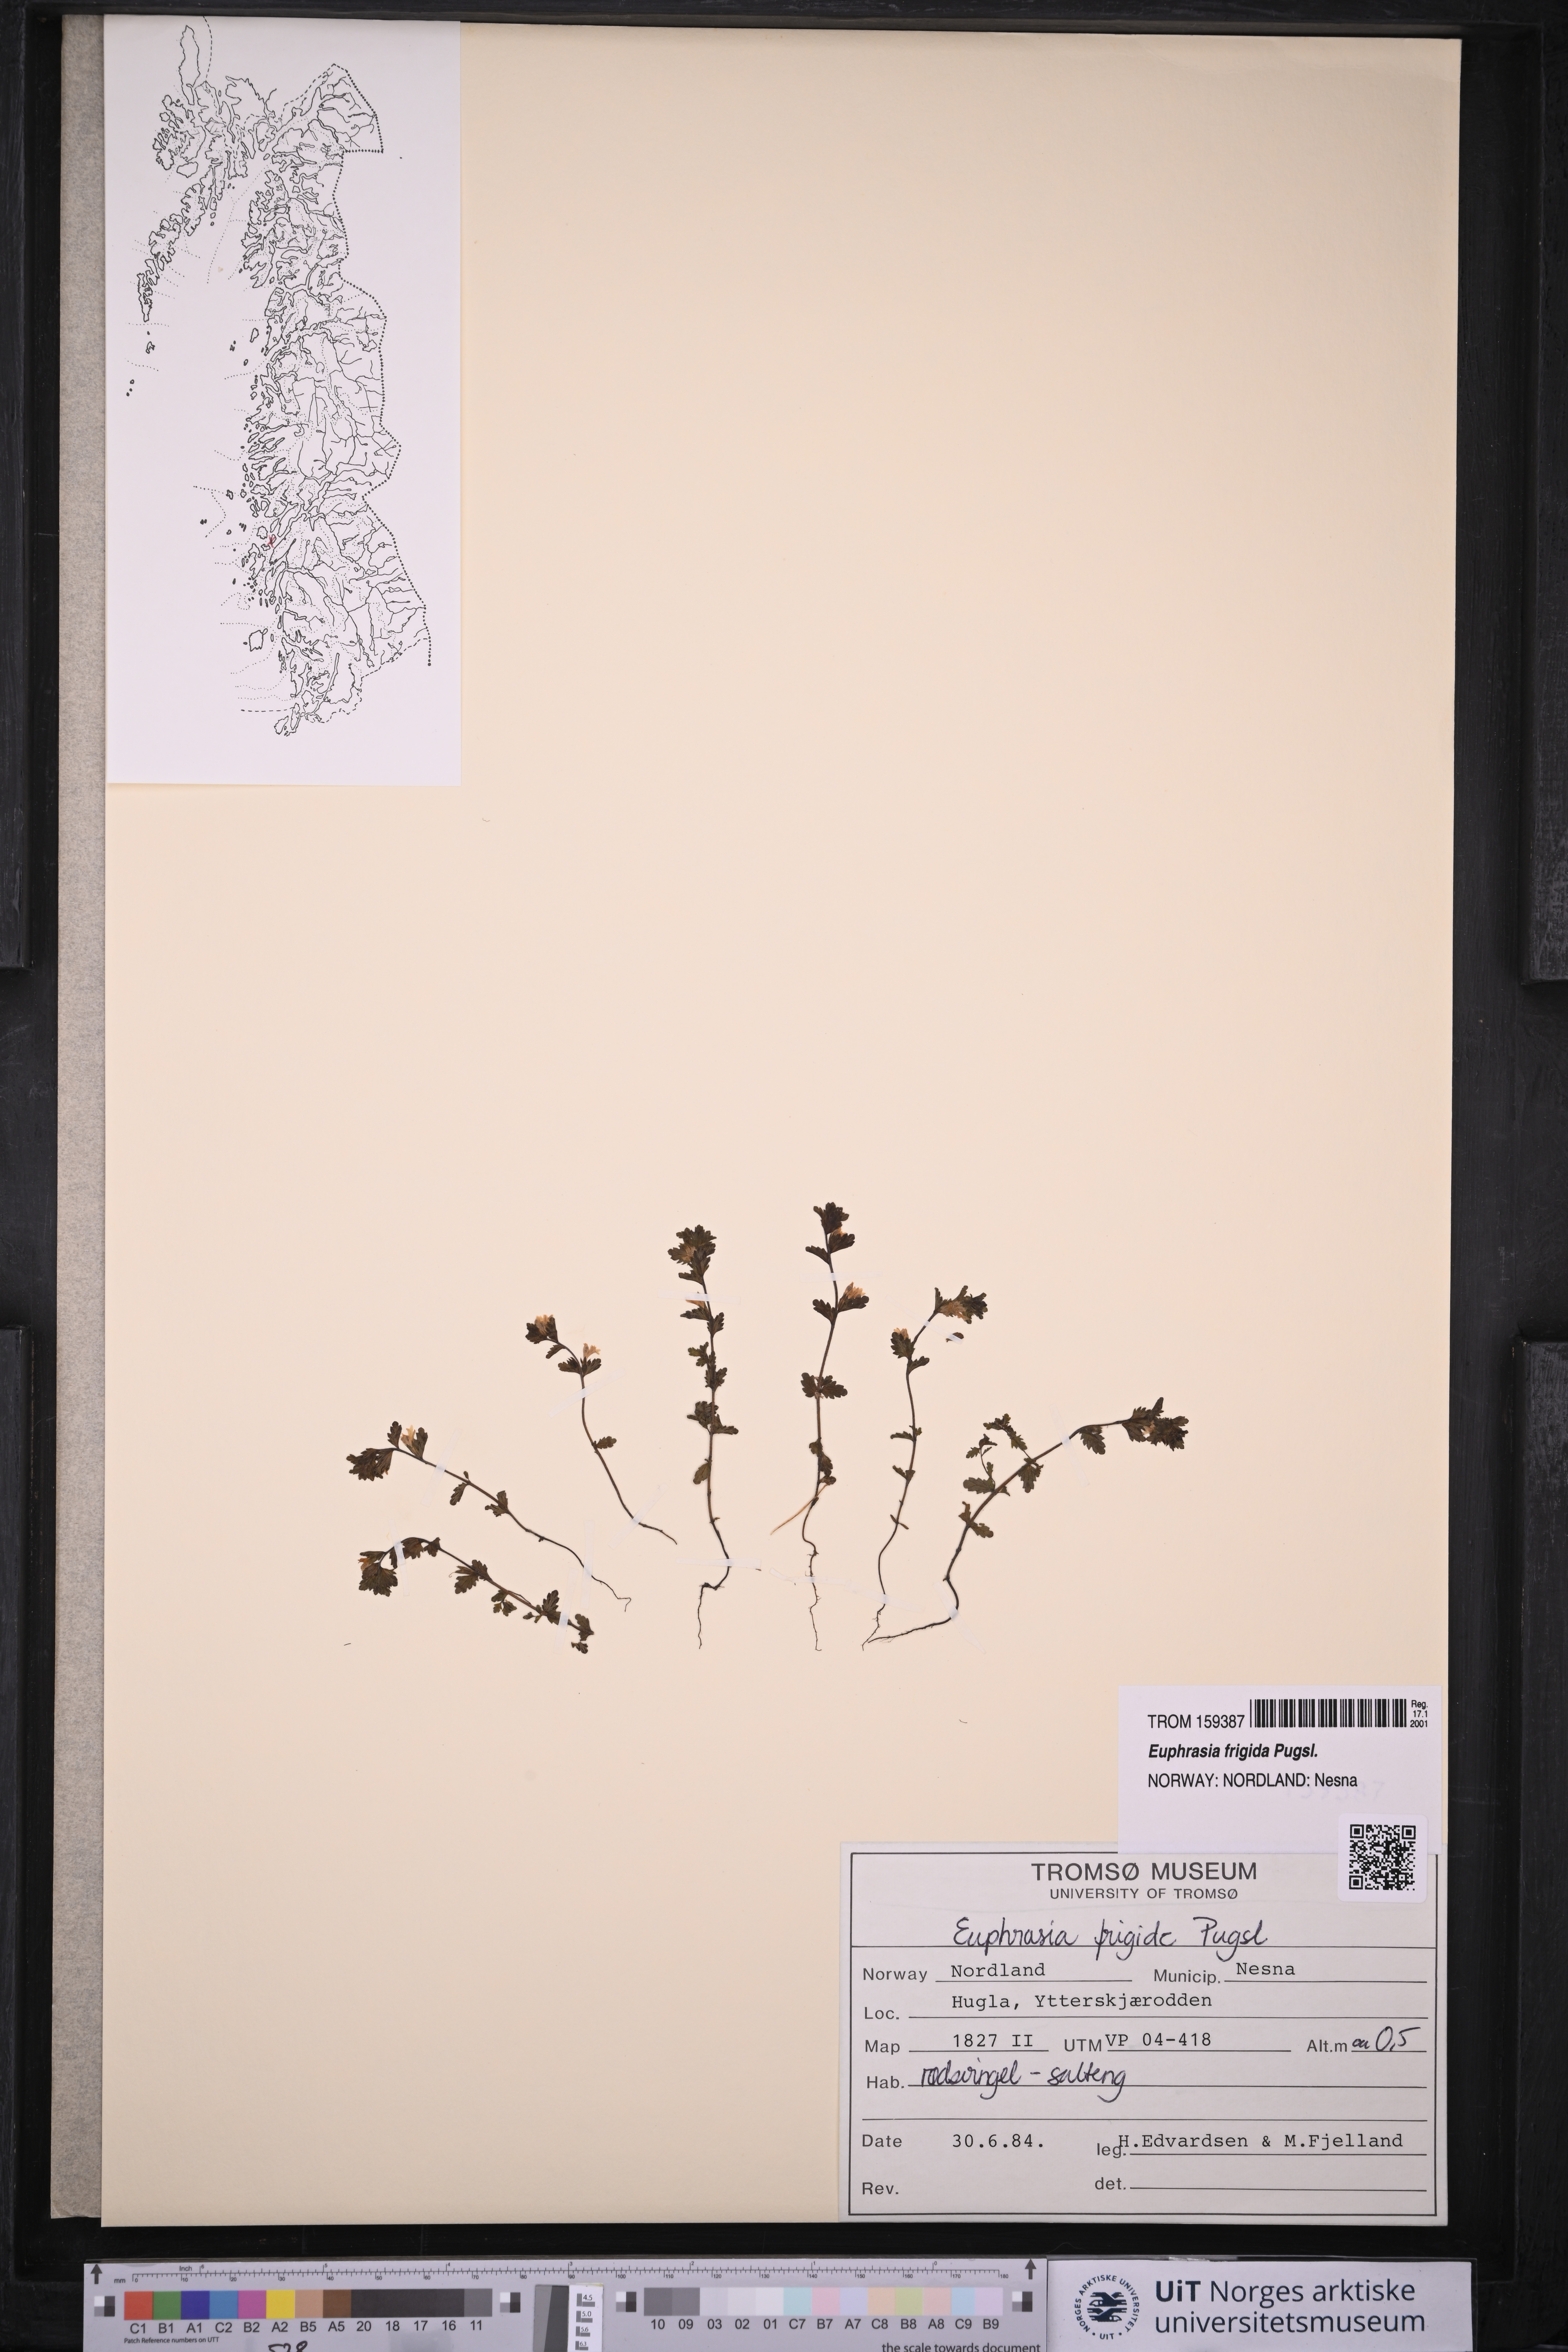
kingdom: Plantae
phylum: Tracheophyta
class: Magnoliopsida
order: Lamiales
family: Orobanchaceae
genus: Euphrasia
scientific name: Euphrasia frigida
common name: An eyebright
